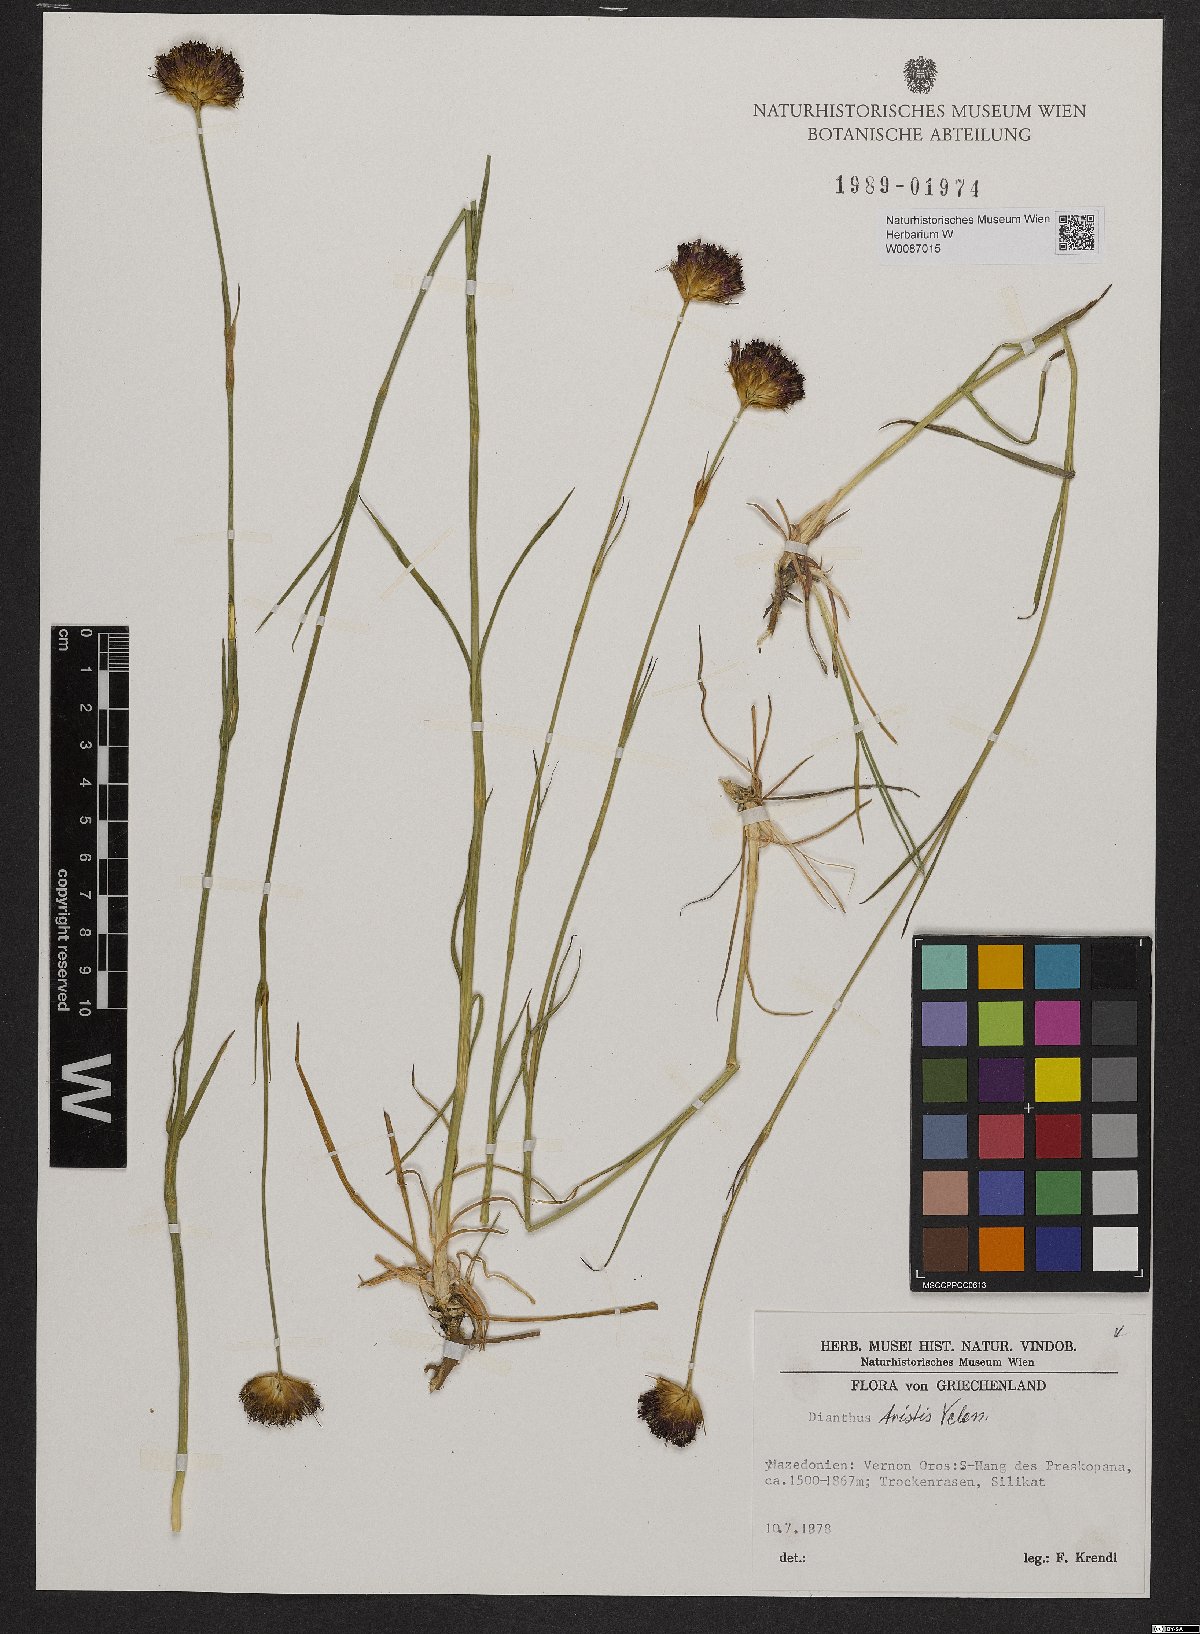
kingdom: Plantae
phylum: Tracheophyta
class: Magnoliopsida
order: Caryophyllales
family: Caryophyllaceae
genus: Dianthus
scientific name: Dianthus pancicii
